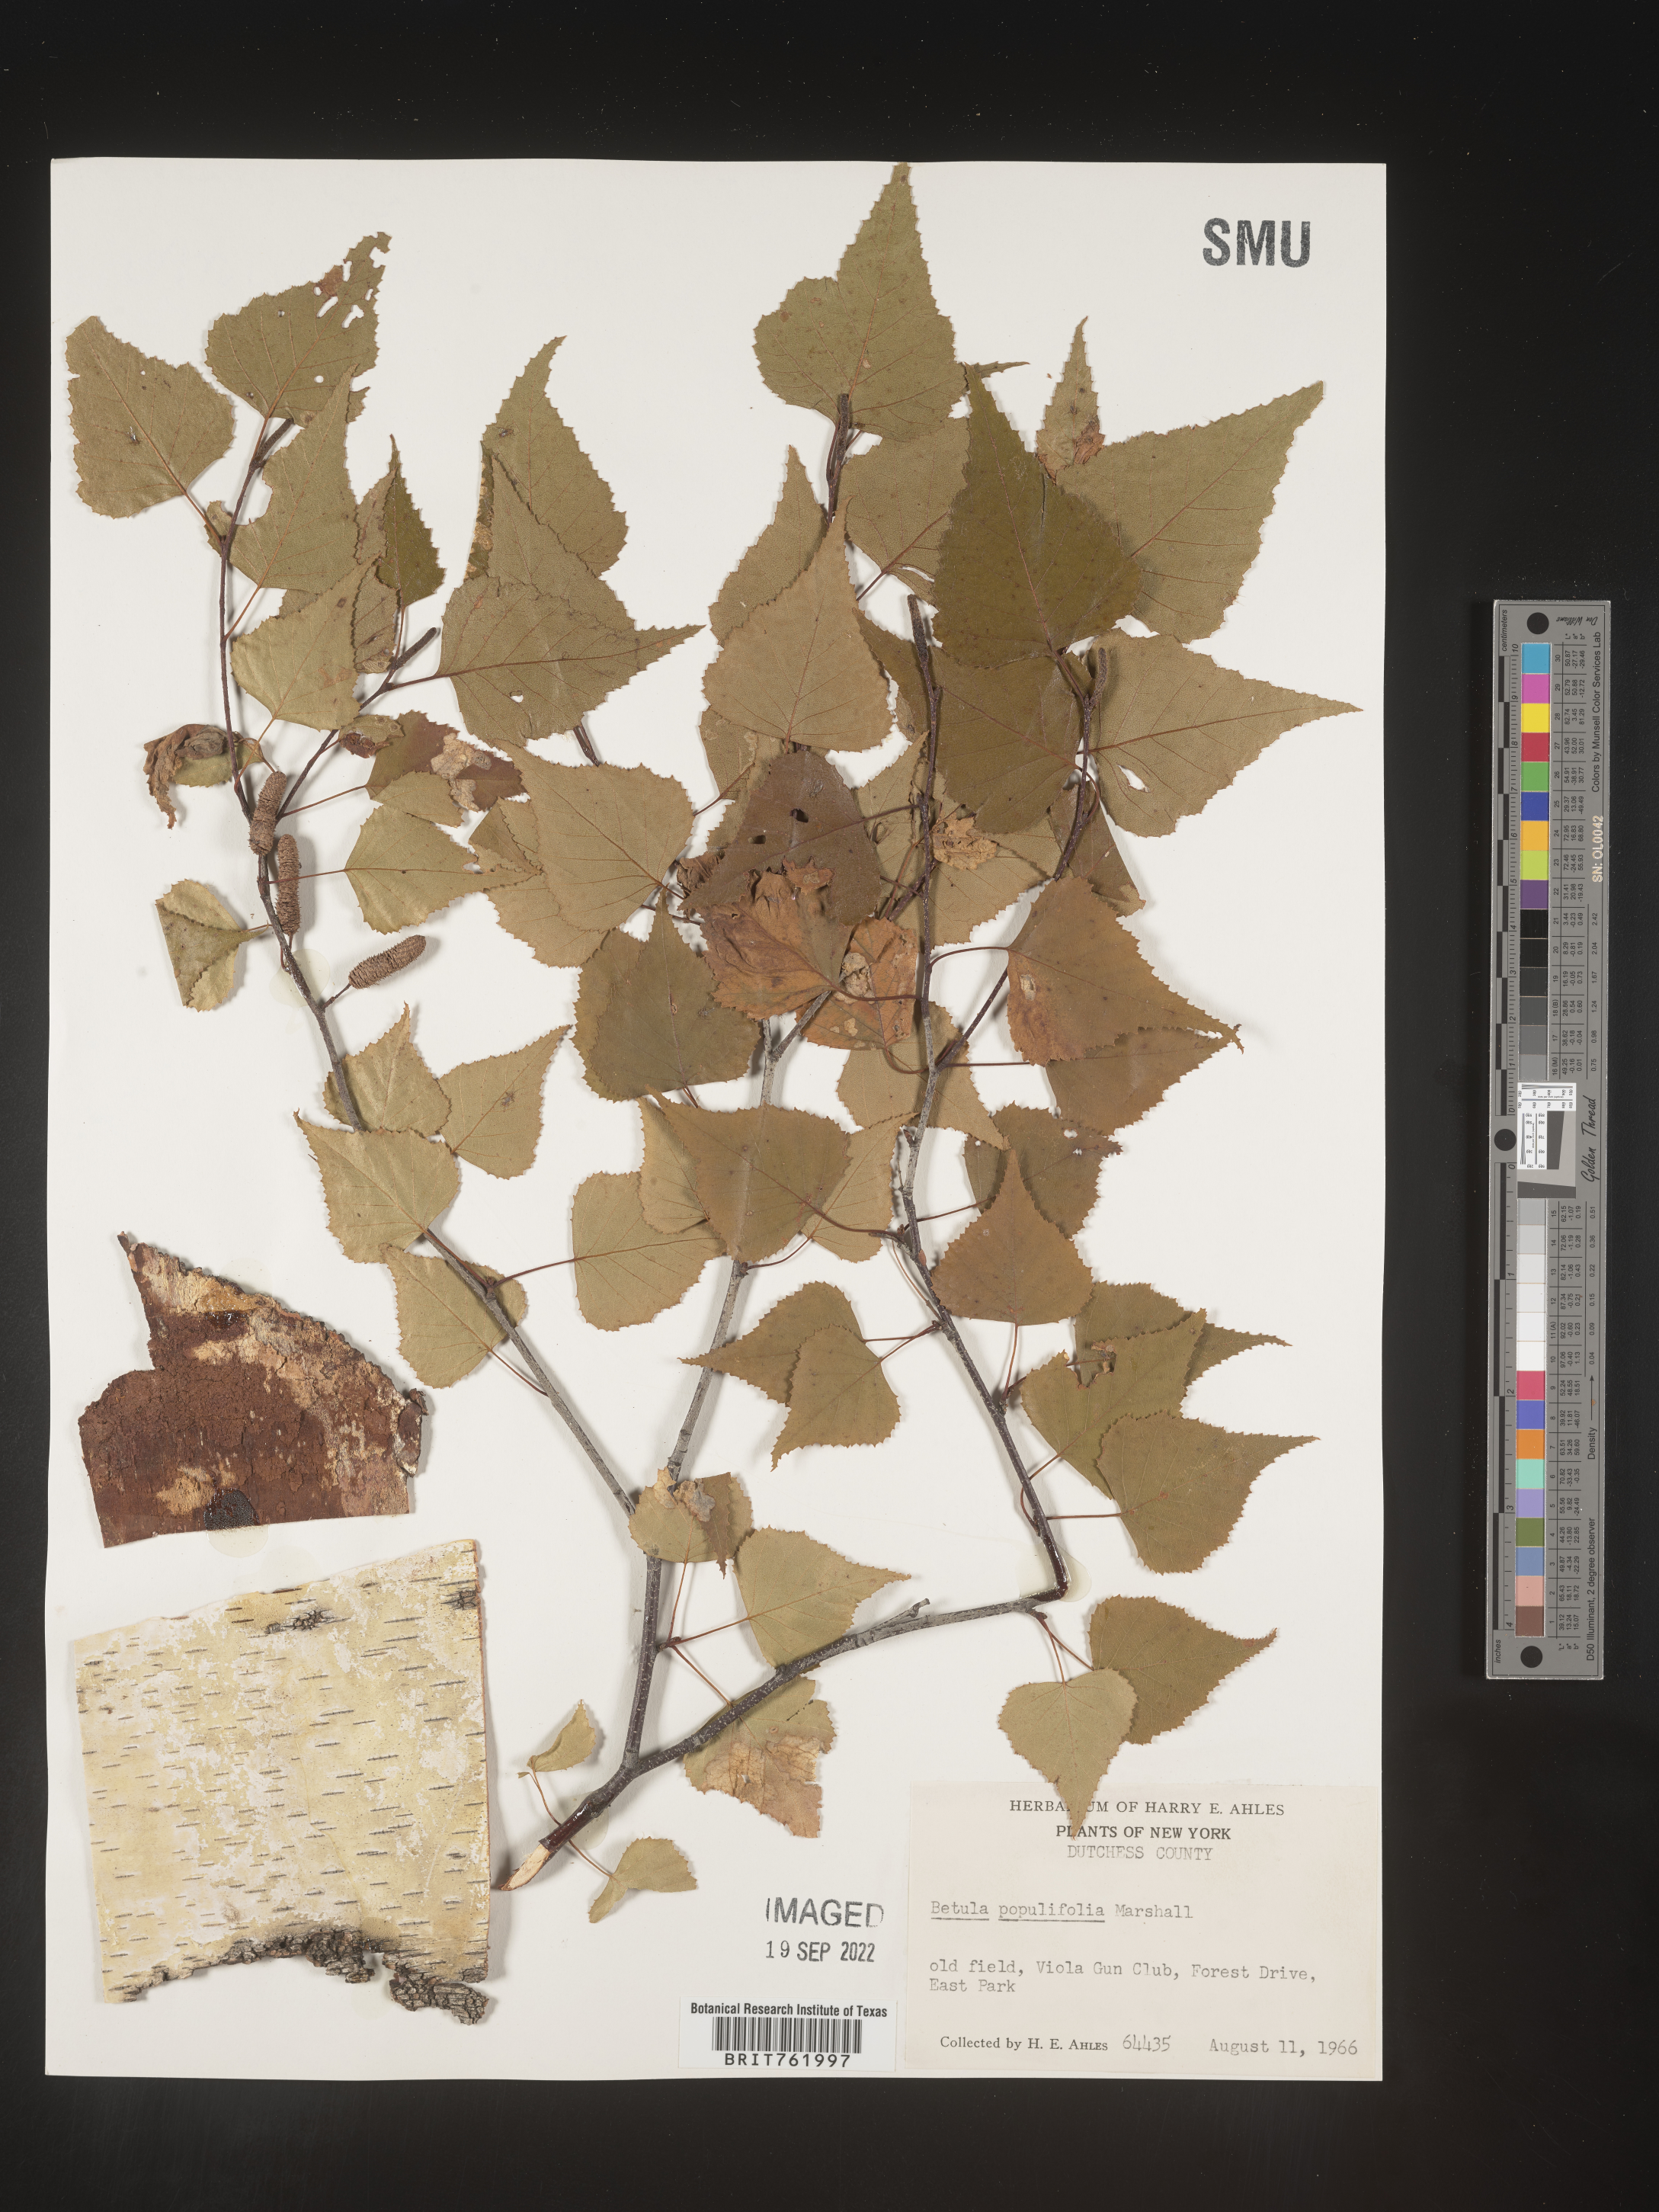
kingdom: Plantae
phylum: Tracheophyta
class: Magnoliopsida
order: Fagales
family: Betulaceae
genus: Betula
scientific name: Betula populifolia
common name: Fire birch
